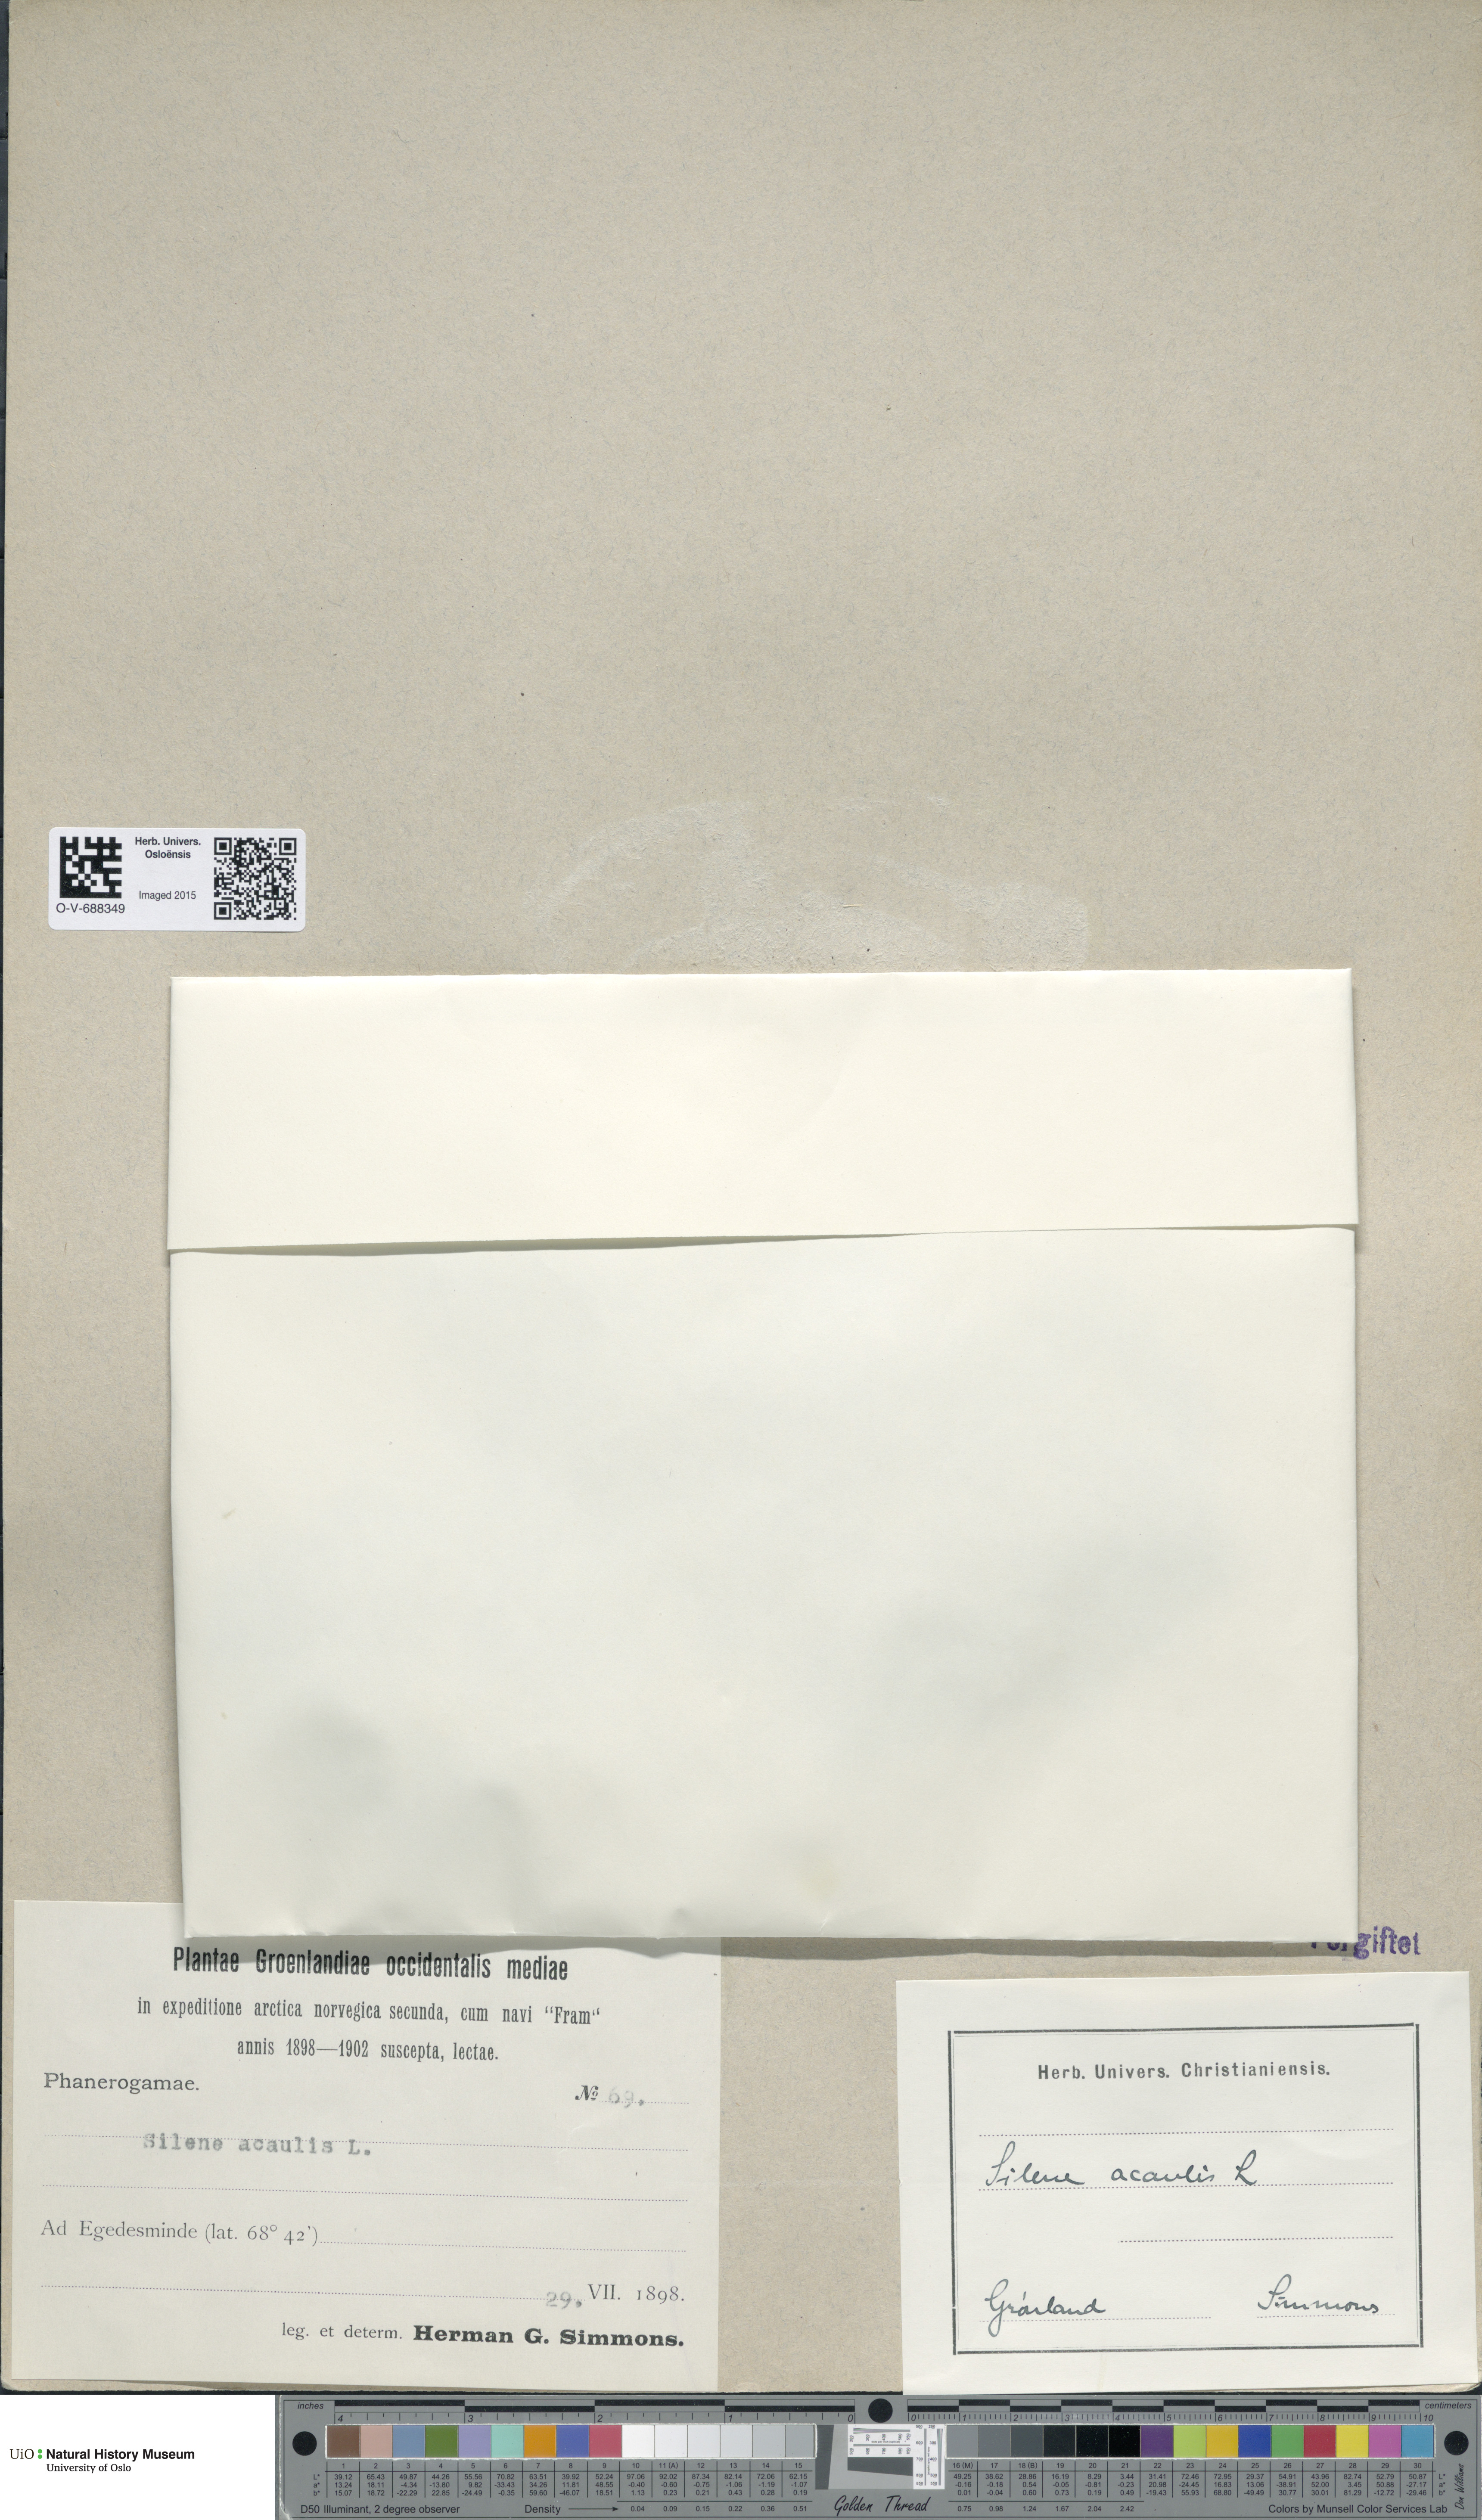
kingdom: Plantae
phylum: Tracheophyta
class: Magnoliopsida
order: Caryophyllales
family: Caryophyllaceae
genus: Silene
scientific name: Silene acaulis
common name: Moss campion
